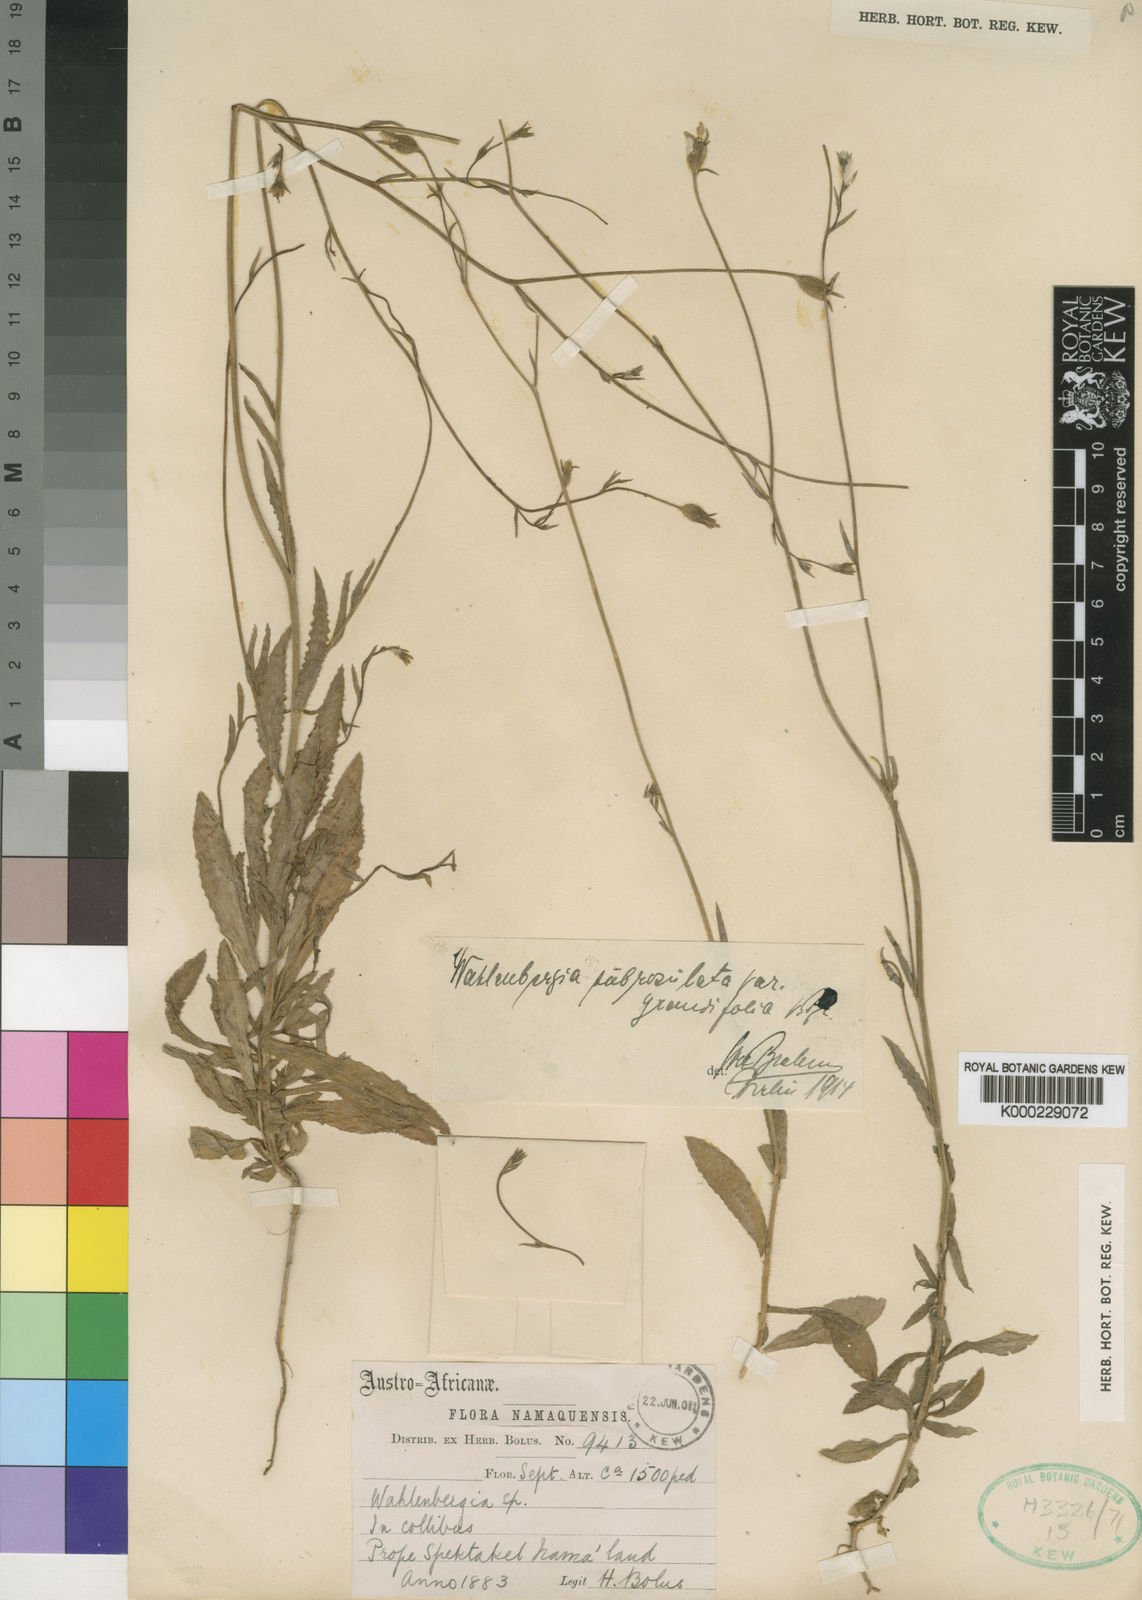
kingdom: Plantae
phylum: Tracheophyta
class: Magnoliopsida
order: Asterales
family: Campanulaceae
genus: Wahlenbergia
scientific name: Wahlenbergia subrosulata
